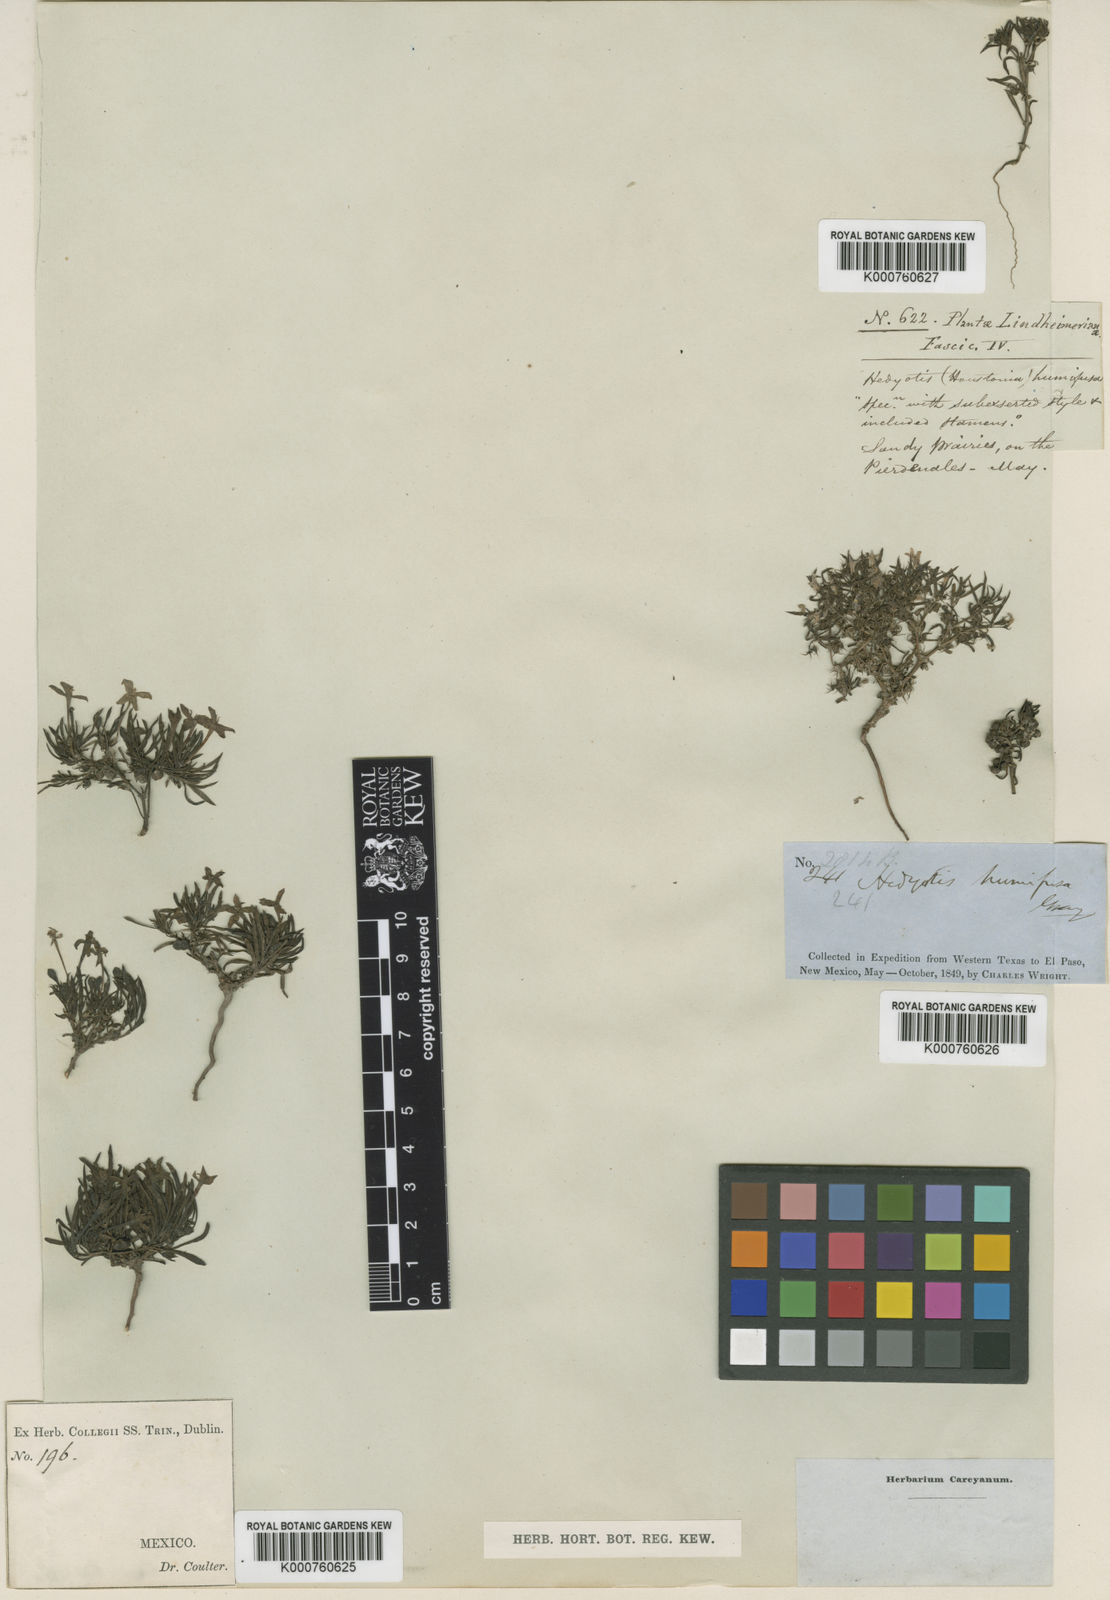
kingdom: Plantae
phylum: Tracheophyta
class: Magnoliopsida
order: Gentianales
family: Rubiaceae
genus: Houstonia
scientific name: Houstonia humifusa
